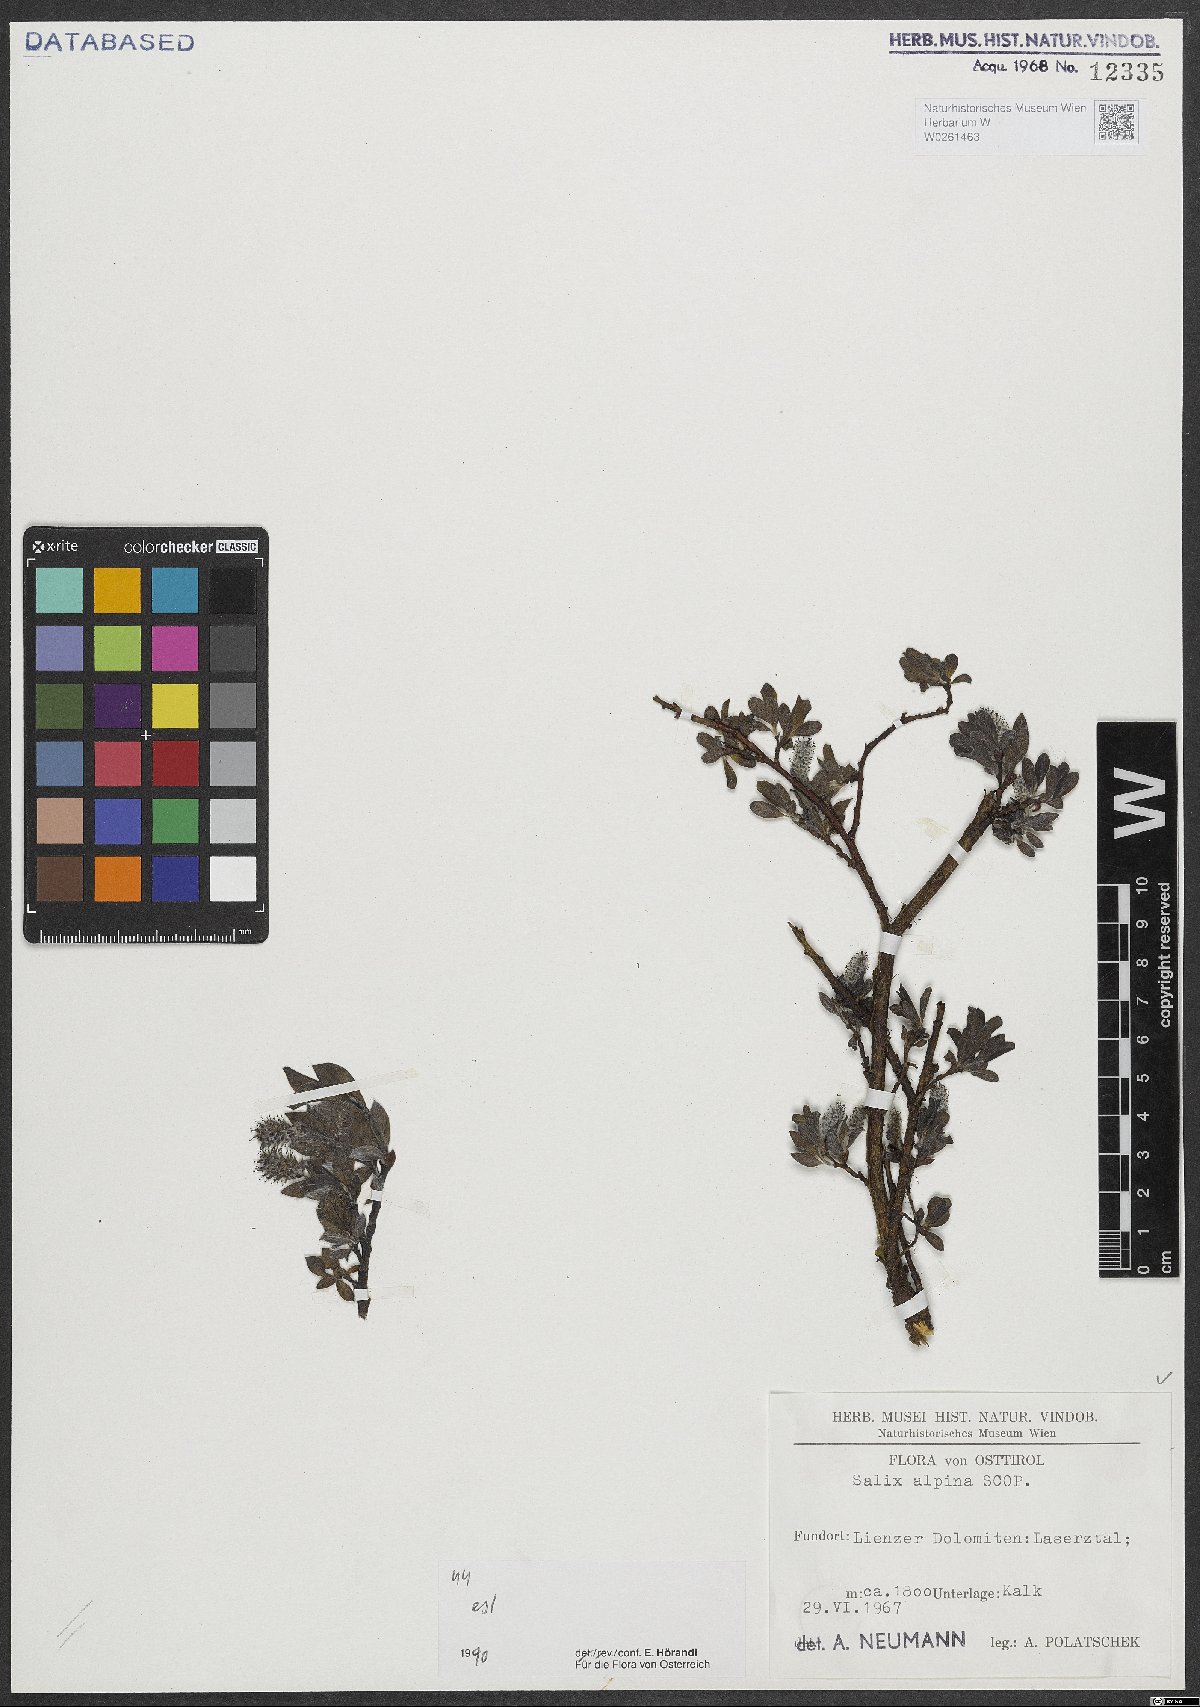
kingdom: Plantae
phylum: Tracheophyta
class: Magnoliopsida
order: Malpighiales
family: Salicaceae
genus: Salix
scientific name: Salix alpina
